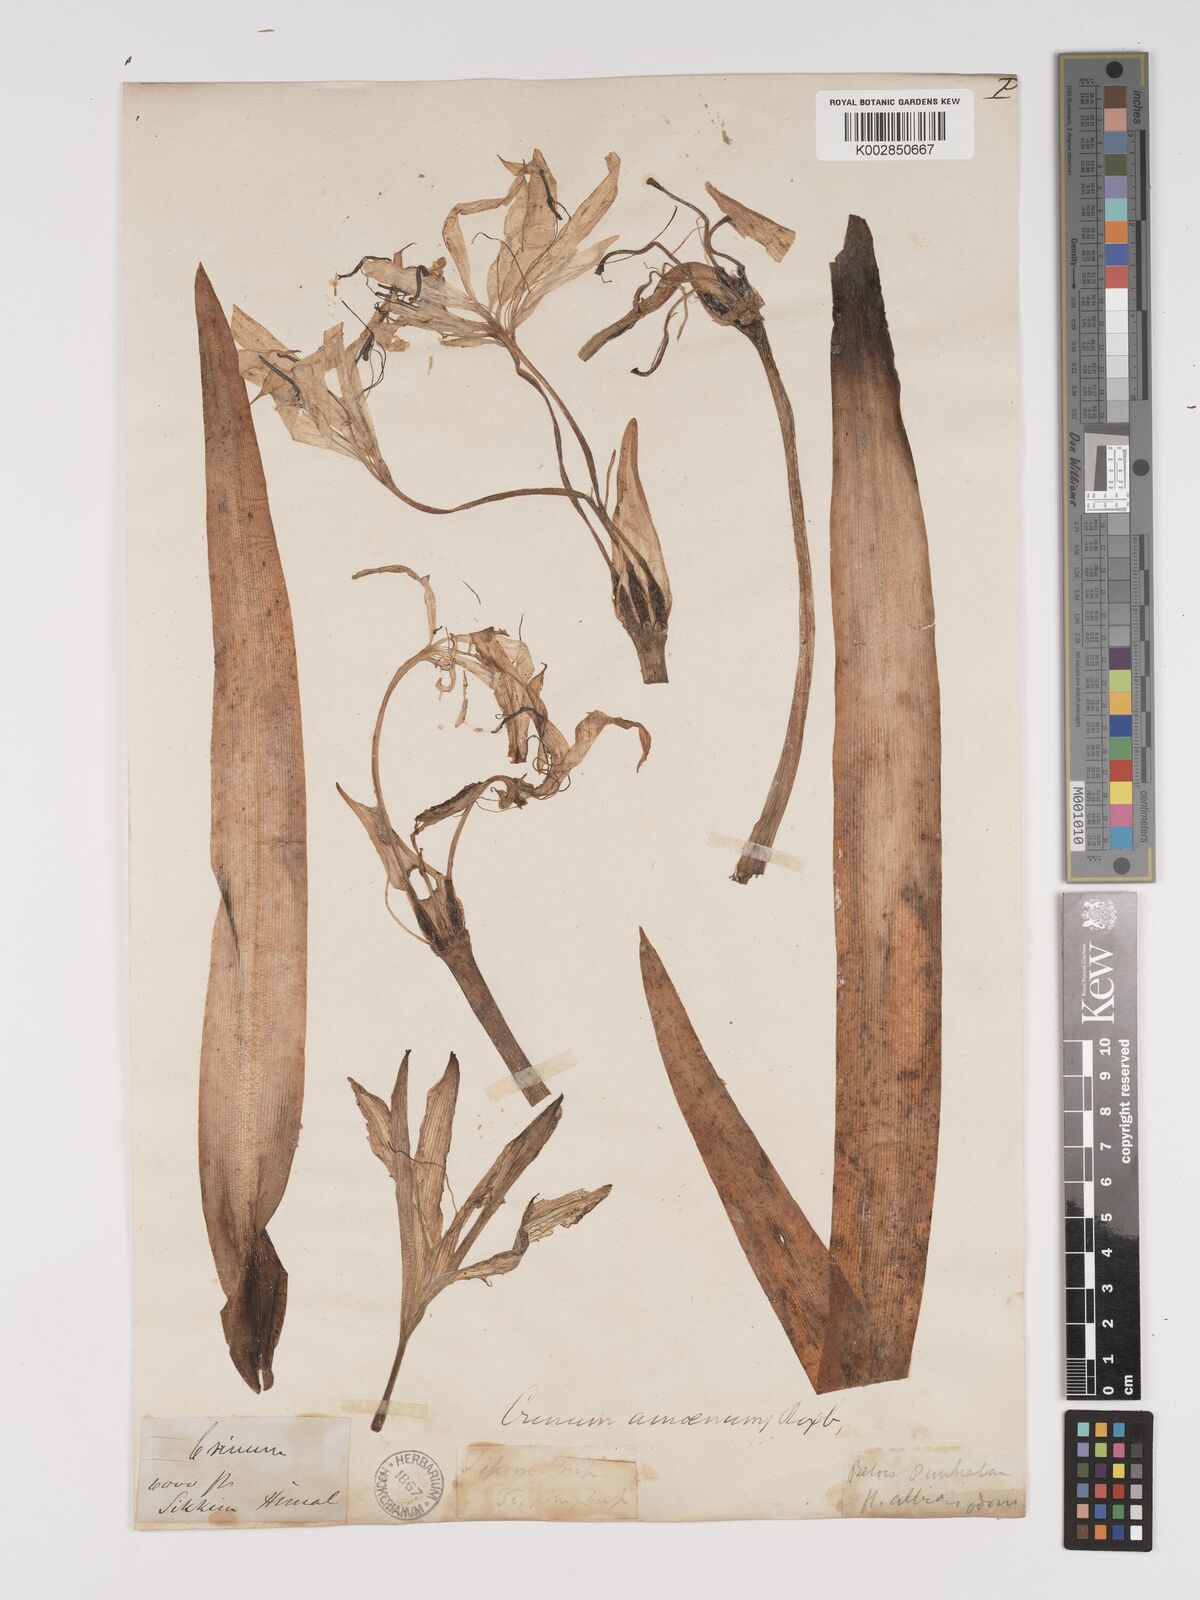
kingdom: Plantae
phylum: Tracheophyta
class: Liliopsida
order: Asparagales
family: Amaryllidaceae
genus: Crinum
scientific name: Crinum amoenum
